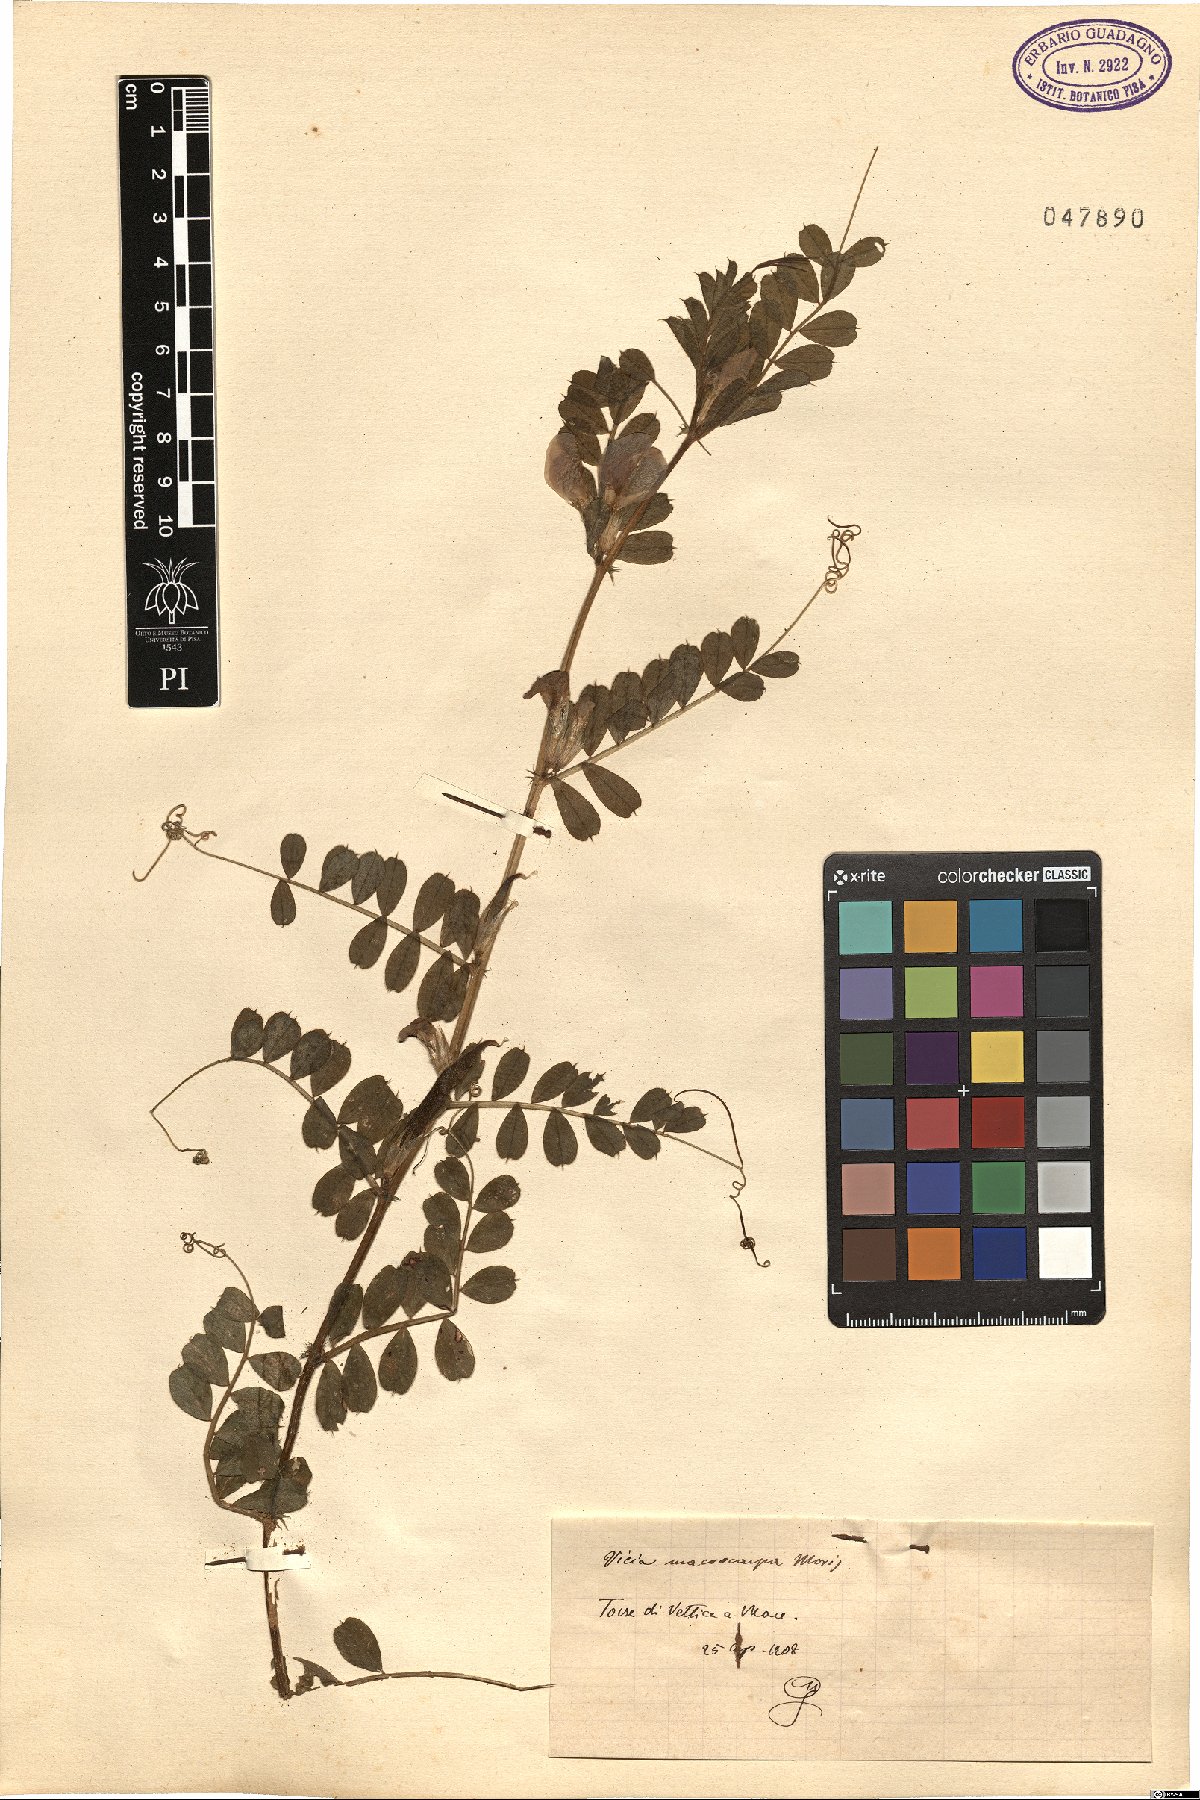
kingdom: Plantae
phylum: Tracheophyta
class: Magnoliopsida
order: Fabales
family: Fabaceae
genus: Vicia
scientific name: Vicia sativa
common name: Garden vetch
